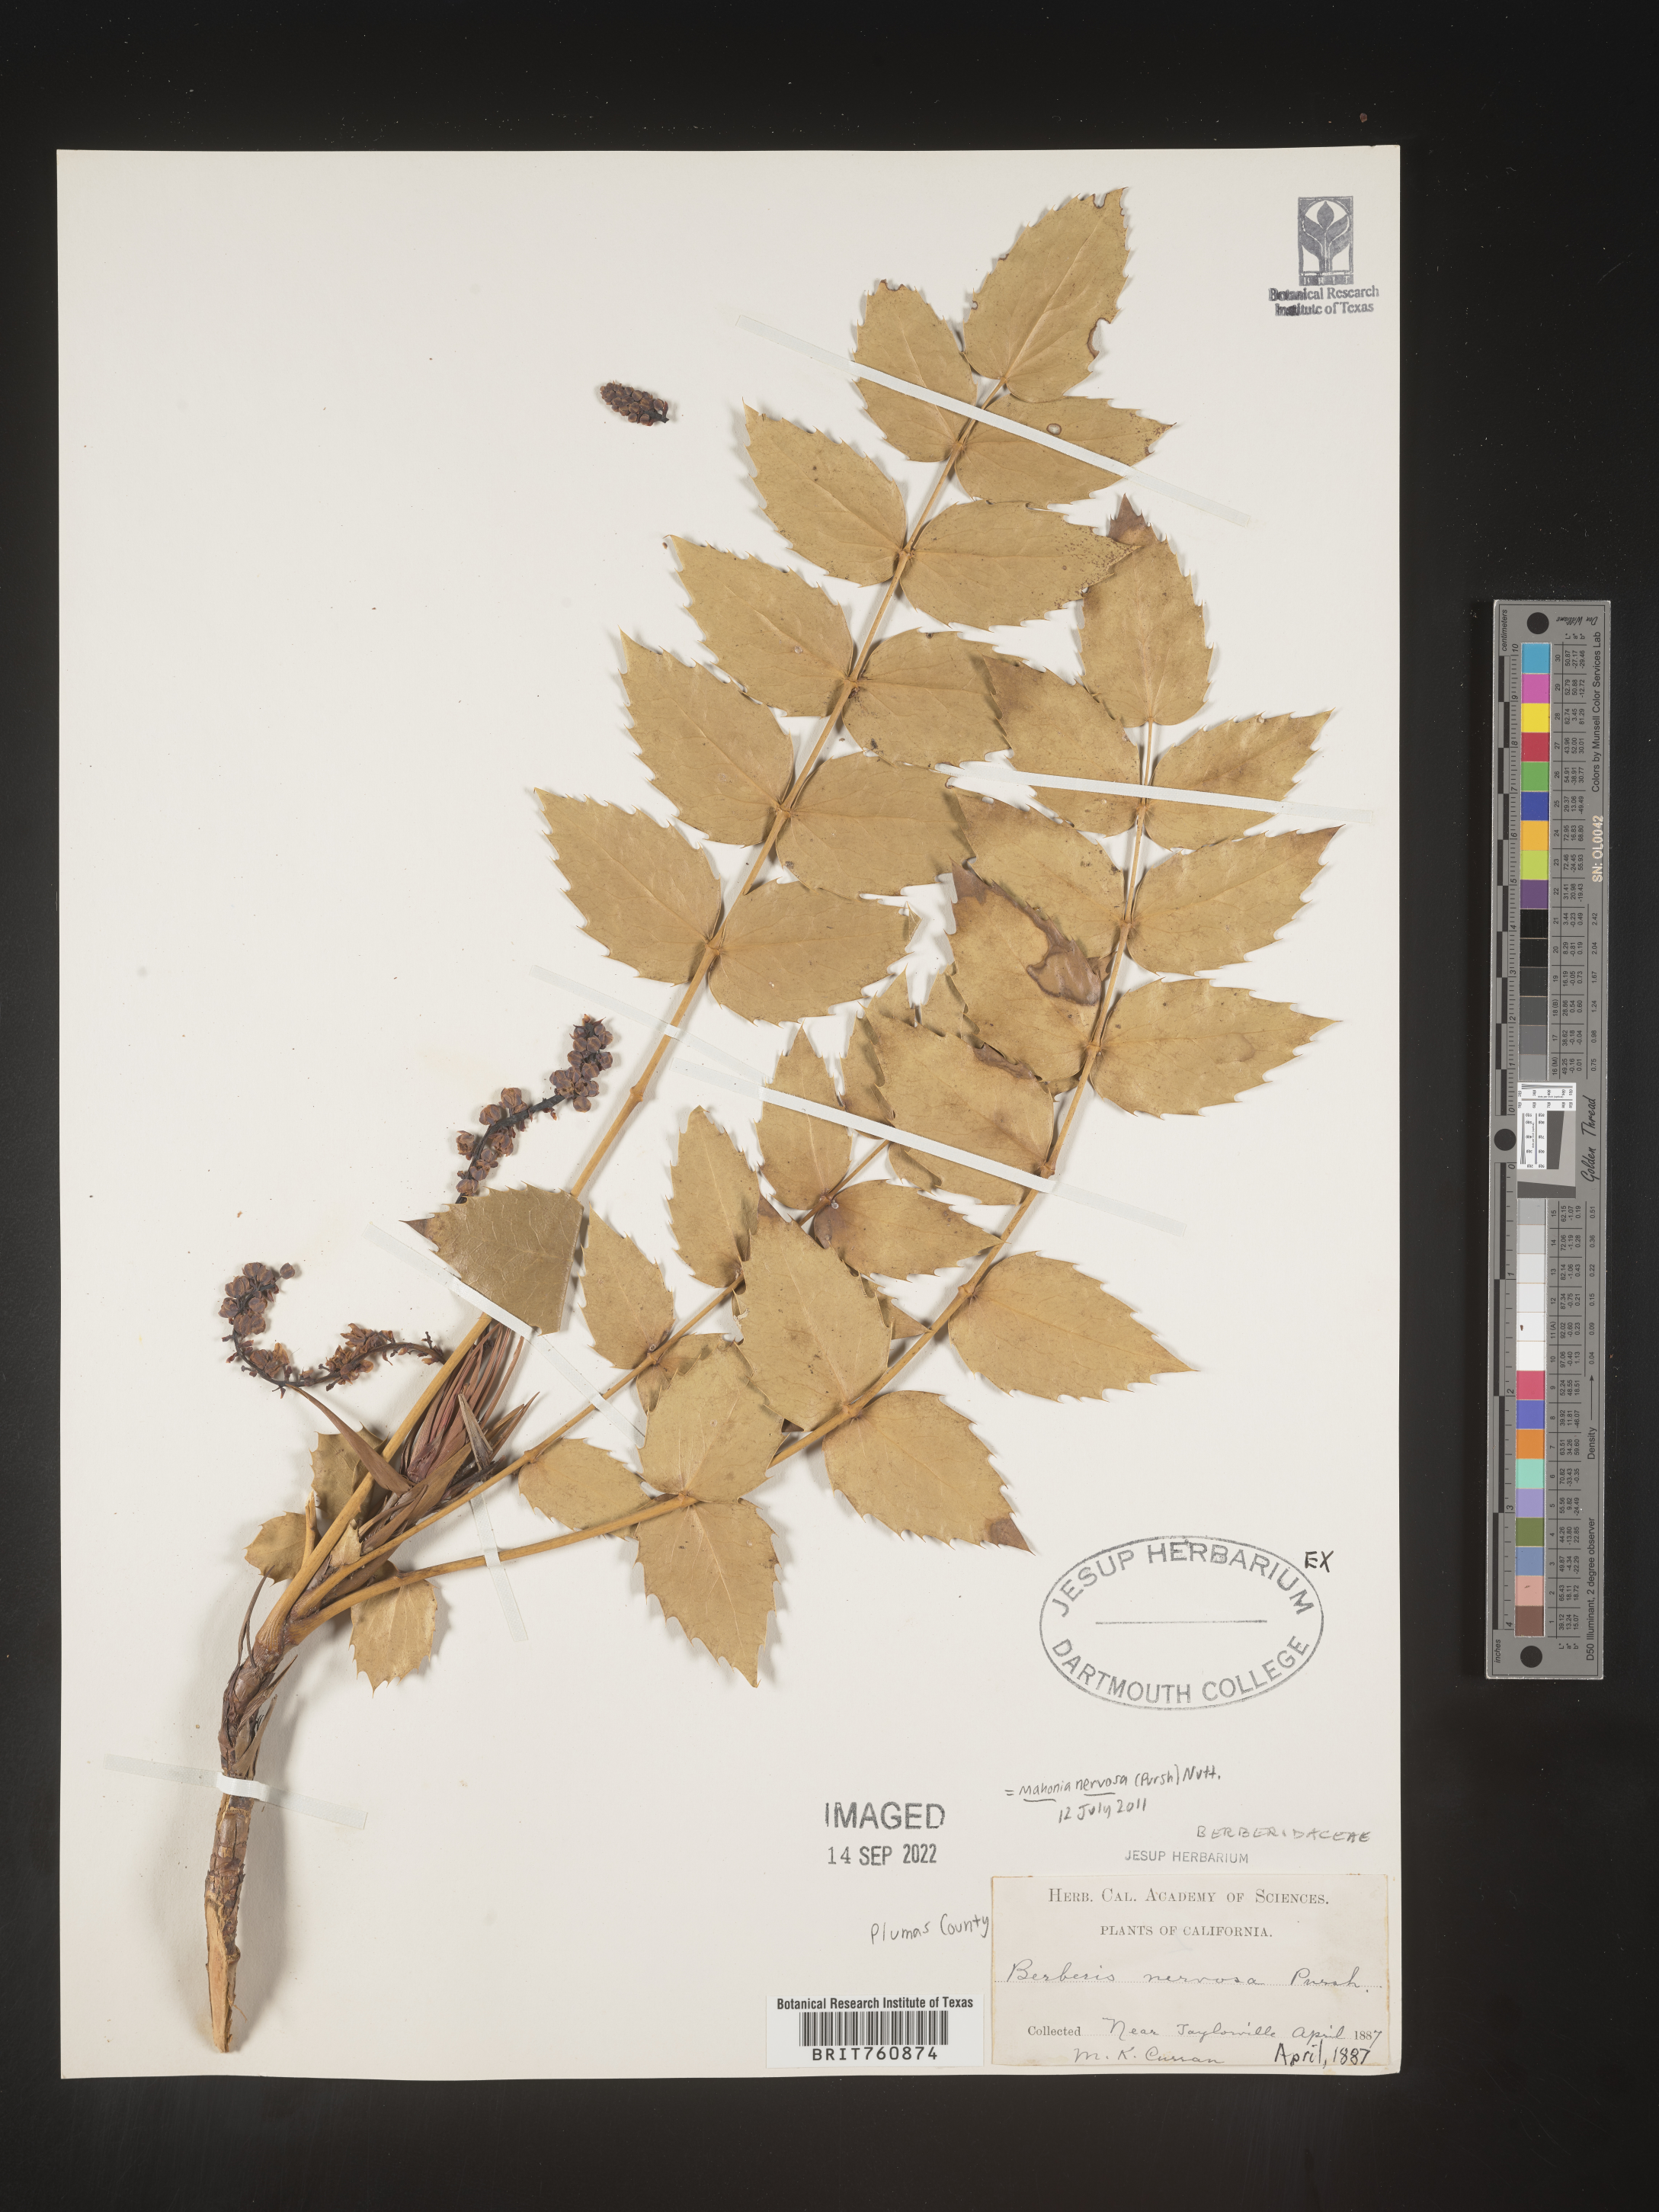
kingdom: Plantae
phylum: Tracheophyta
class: Magnoliopsida
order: Ranunculales
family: Berberidaceae
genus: Mahonia
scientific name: Mahonia
